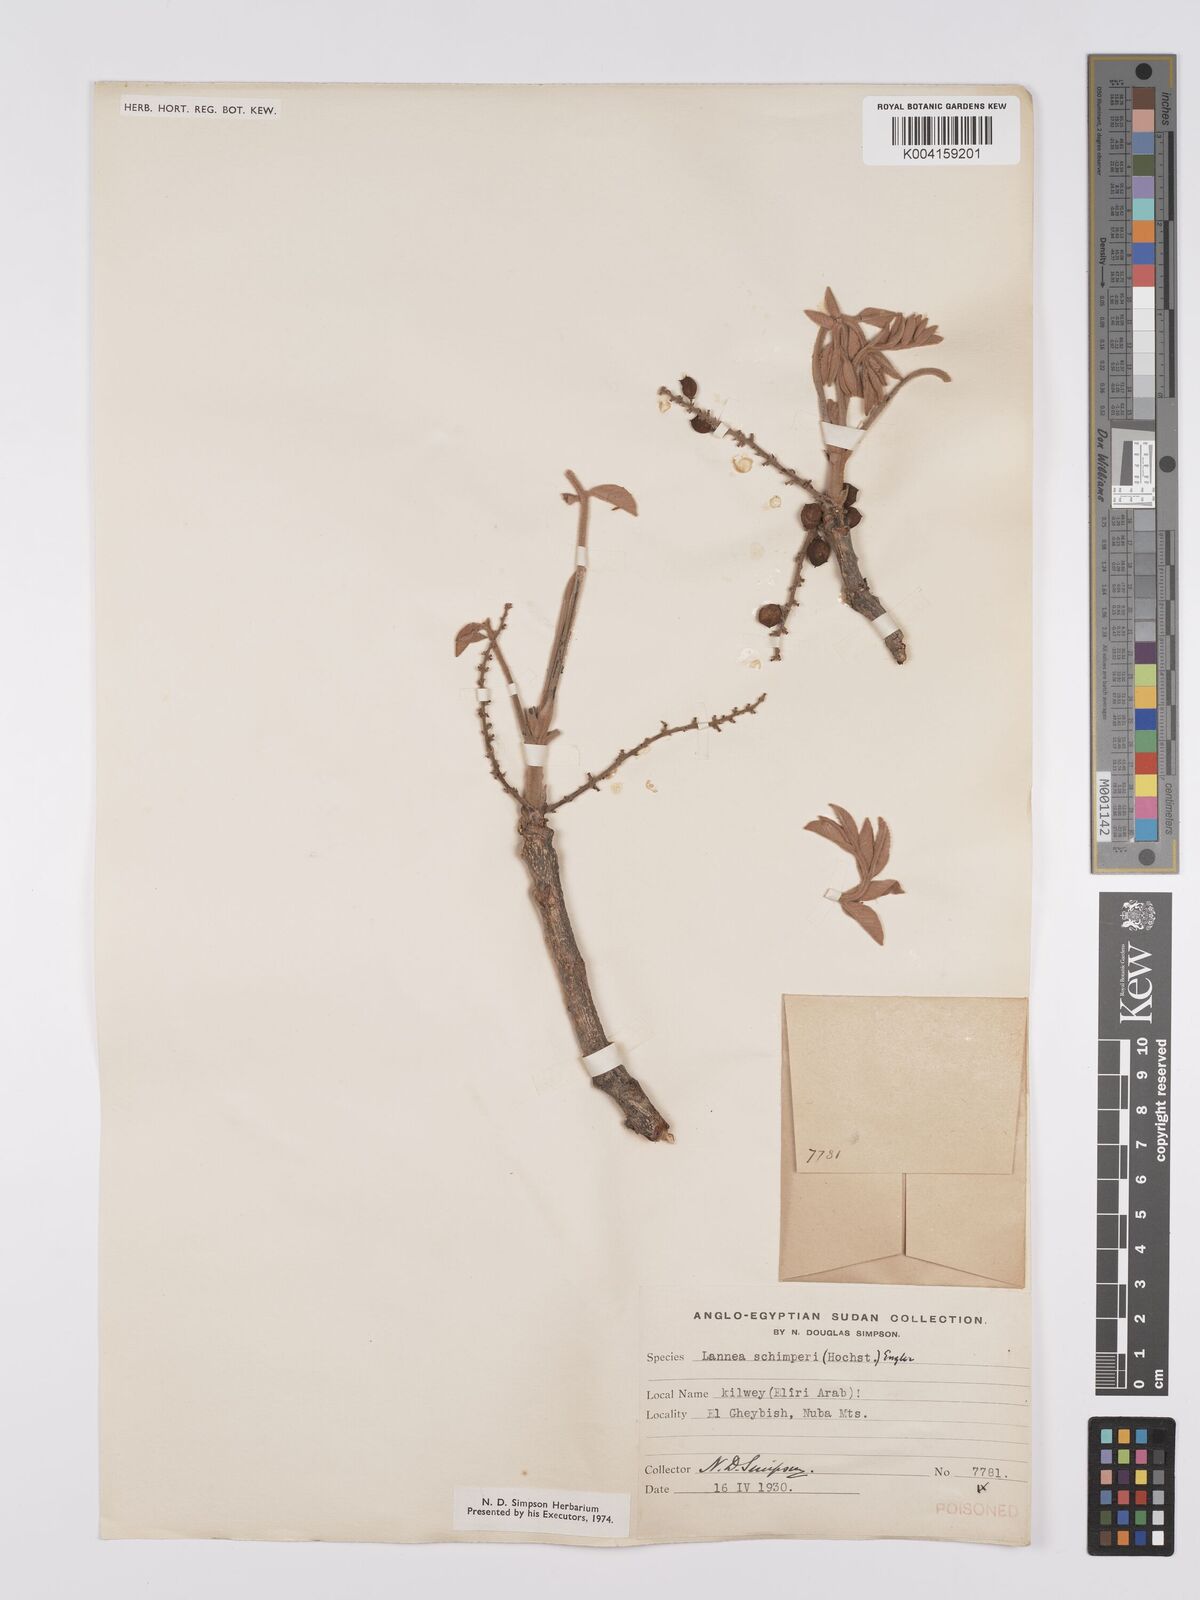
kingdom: Plantae
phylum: Tracheophyta
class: Magnoliopsida
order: Sapindales
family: Anacardiaceae
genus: Lannea
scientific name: Lannea schimperi
